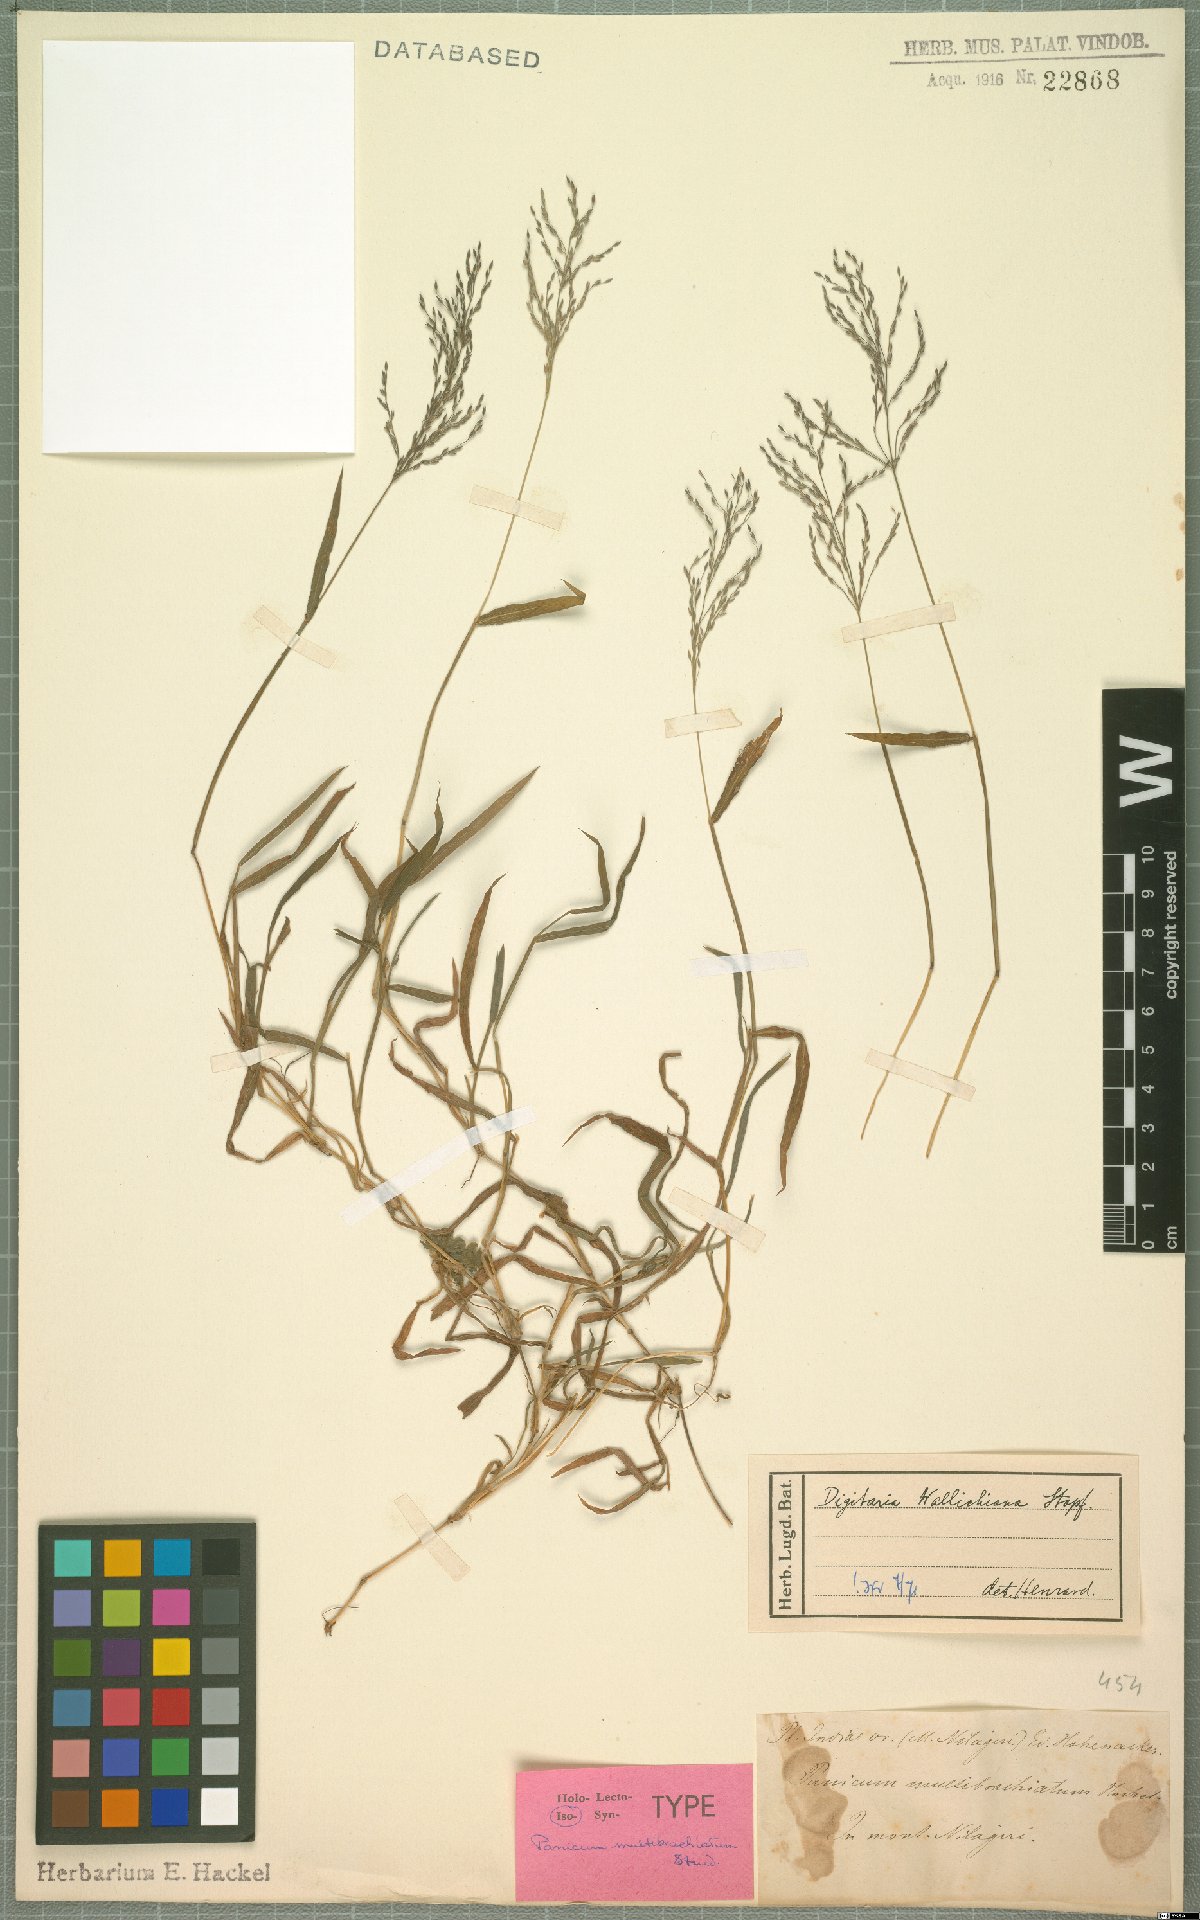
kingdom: Plantae
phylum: Tracheophyta
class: Liliopsida
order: Poales
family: Poaceae
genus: Digitaria
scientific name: Digitaria wallichiana
